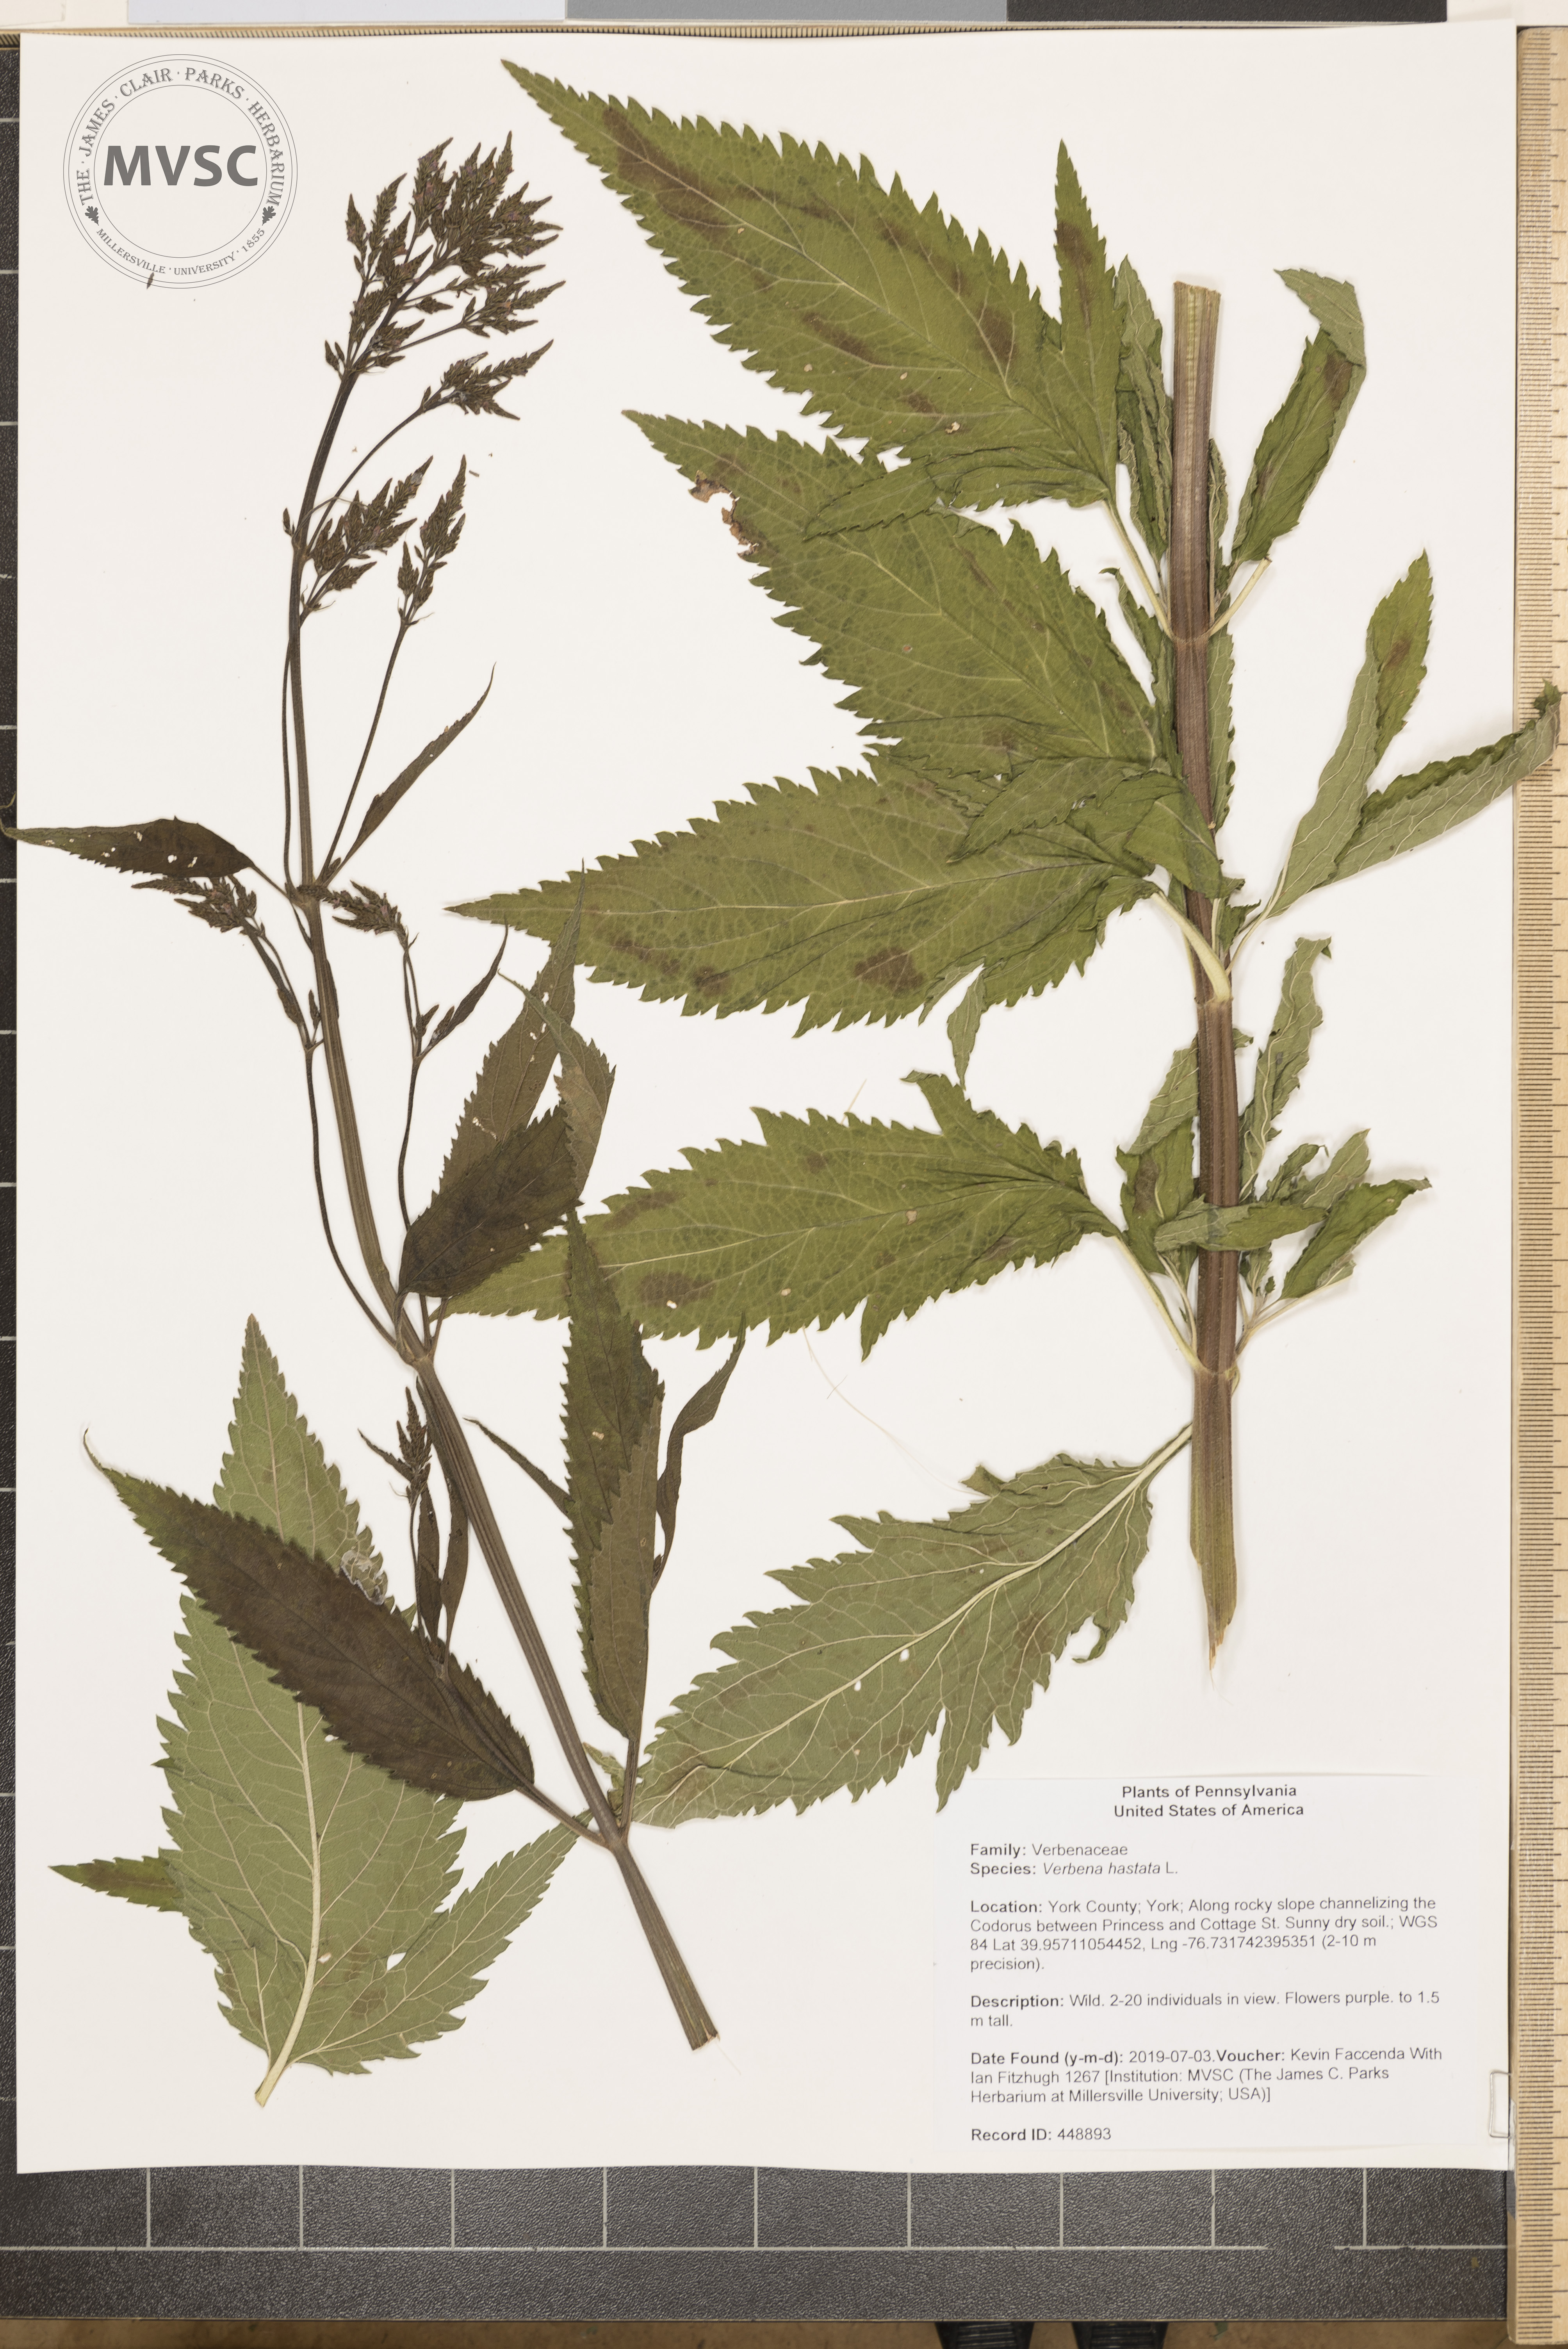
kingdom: Plantae
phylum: Tracheophyta
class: Magnoliopsida
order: Lamiales
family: Verbenaceae
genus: Verbena
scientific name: Verbena hastata
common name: American blue vervain
